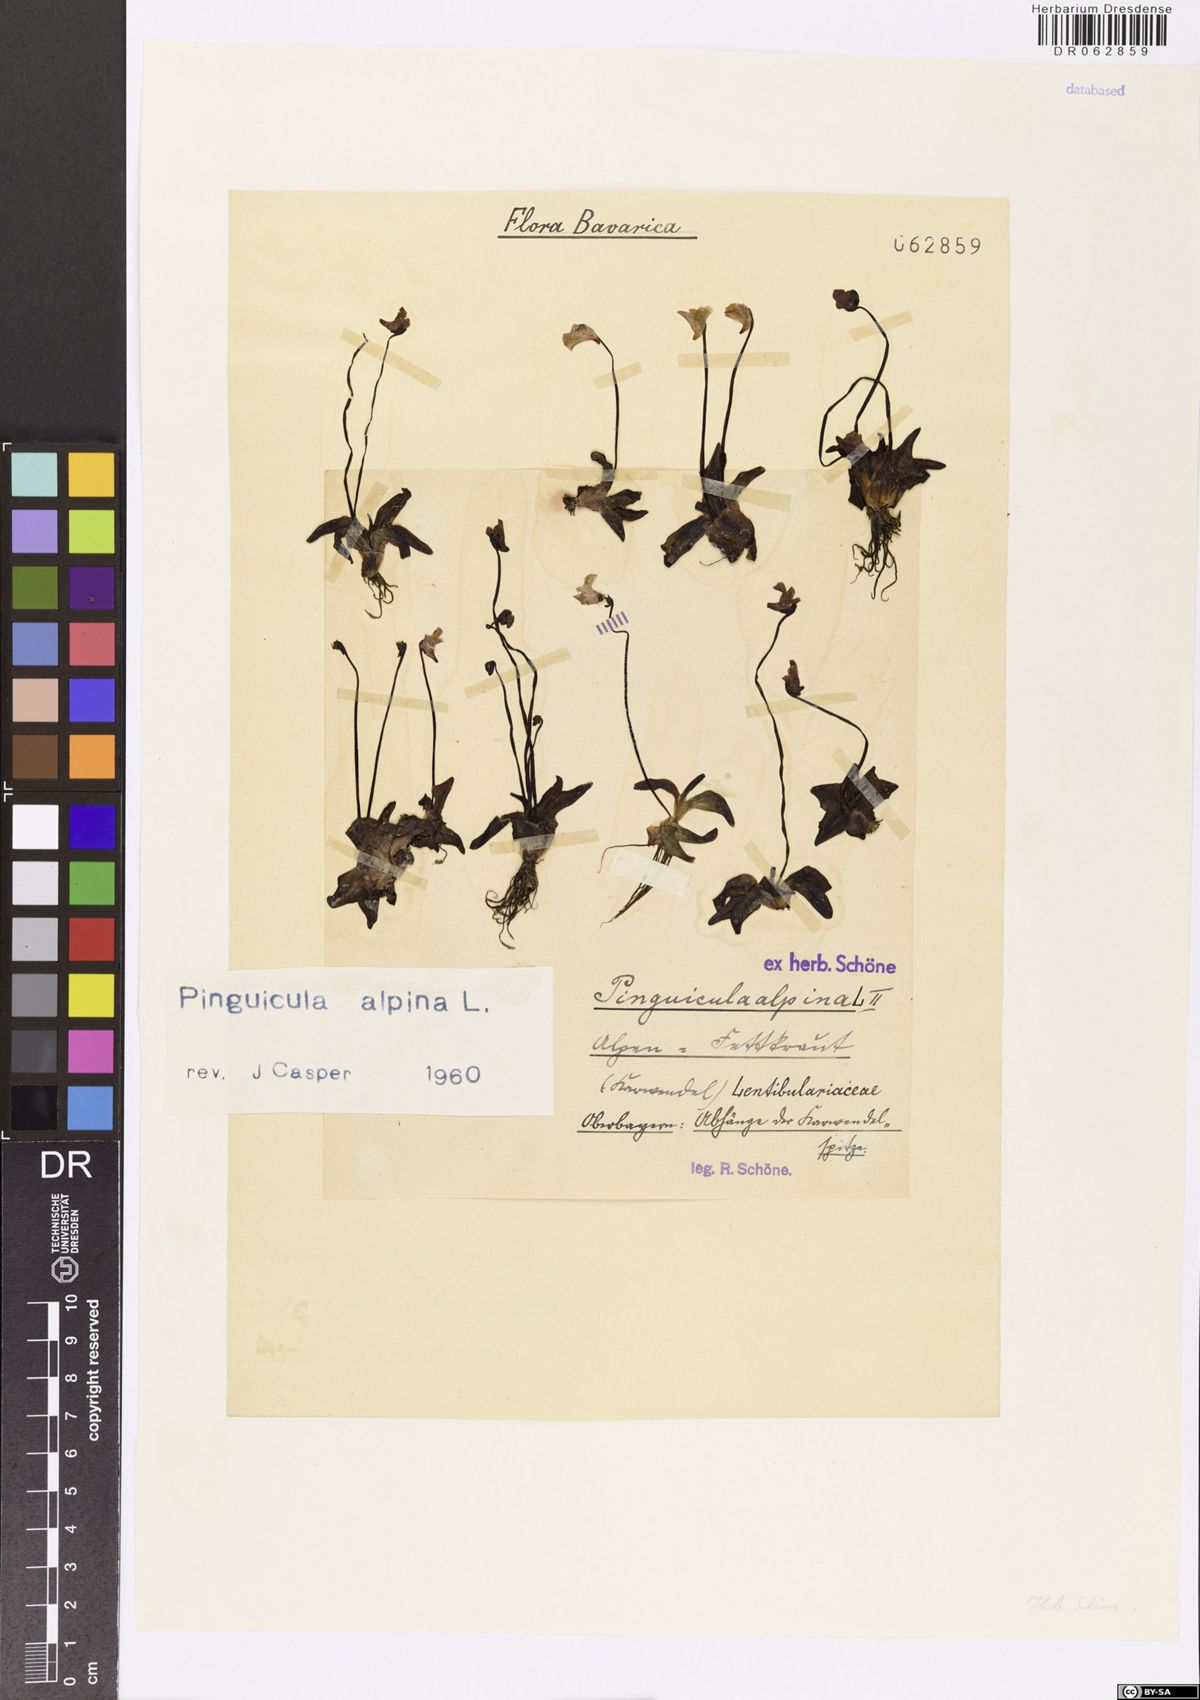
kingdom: Plantae
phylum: Tracheophyta
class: Magnoliopsida
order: Lamiales
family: Lentibulariaceae
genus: Pinguicula
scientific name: Pinguicula alpina
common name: Alpine butterwort
